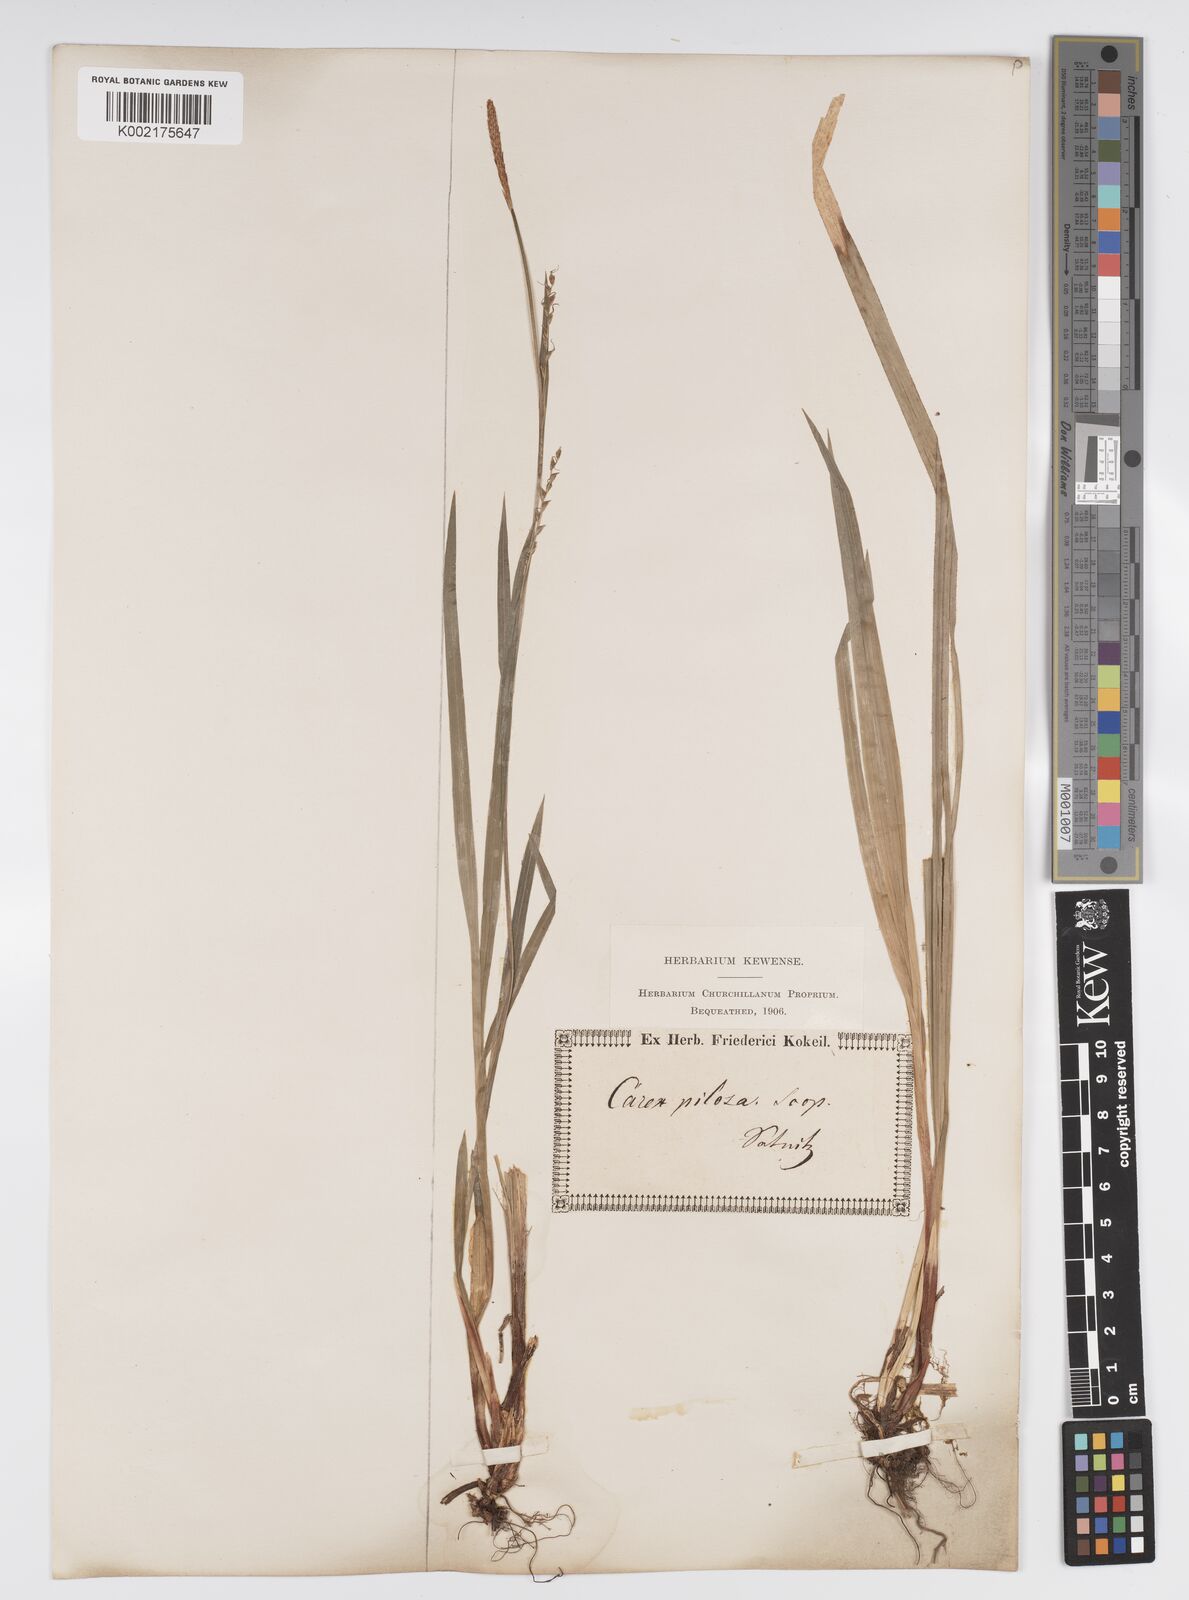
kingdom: Plantae
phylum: Tracheophyta
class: Liliopsida
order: Poales
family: Cyperaceae
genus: Carex
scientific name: Carex pilosa
